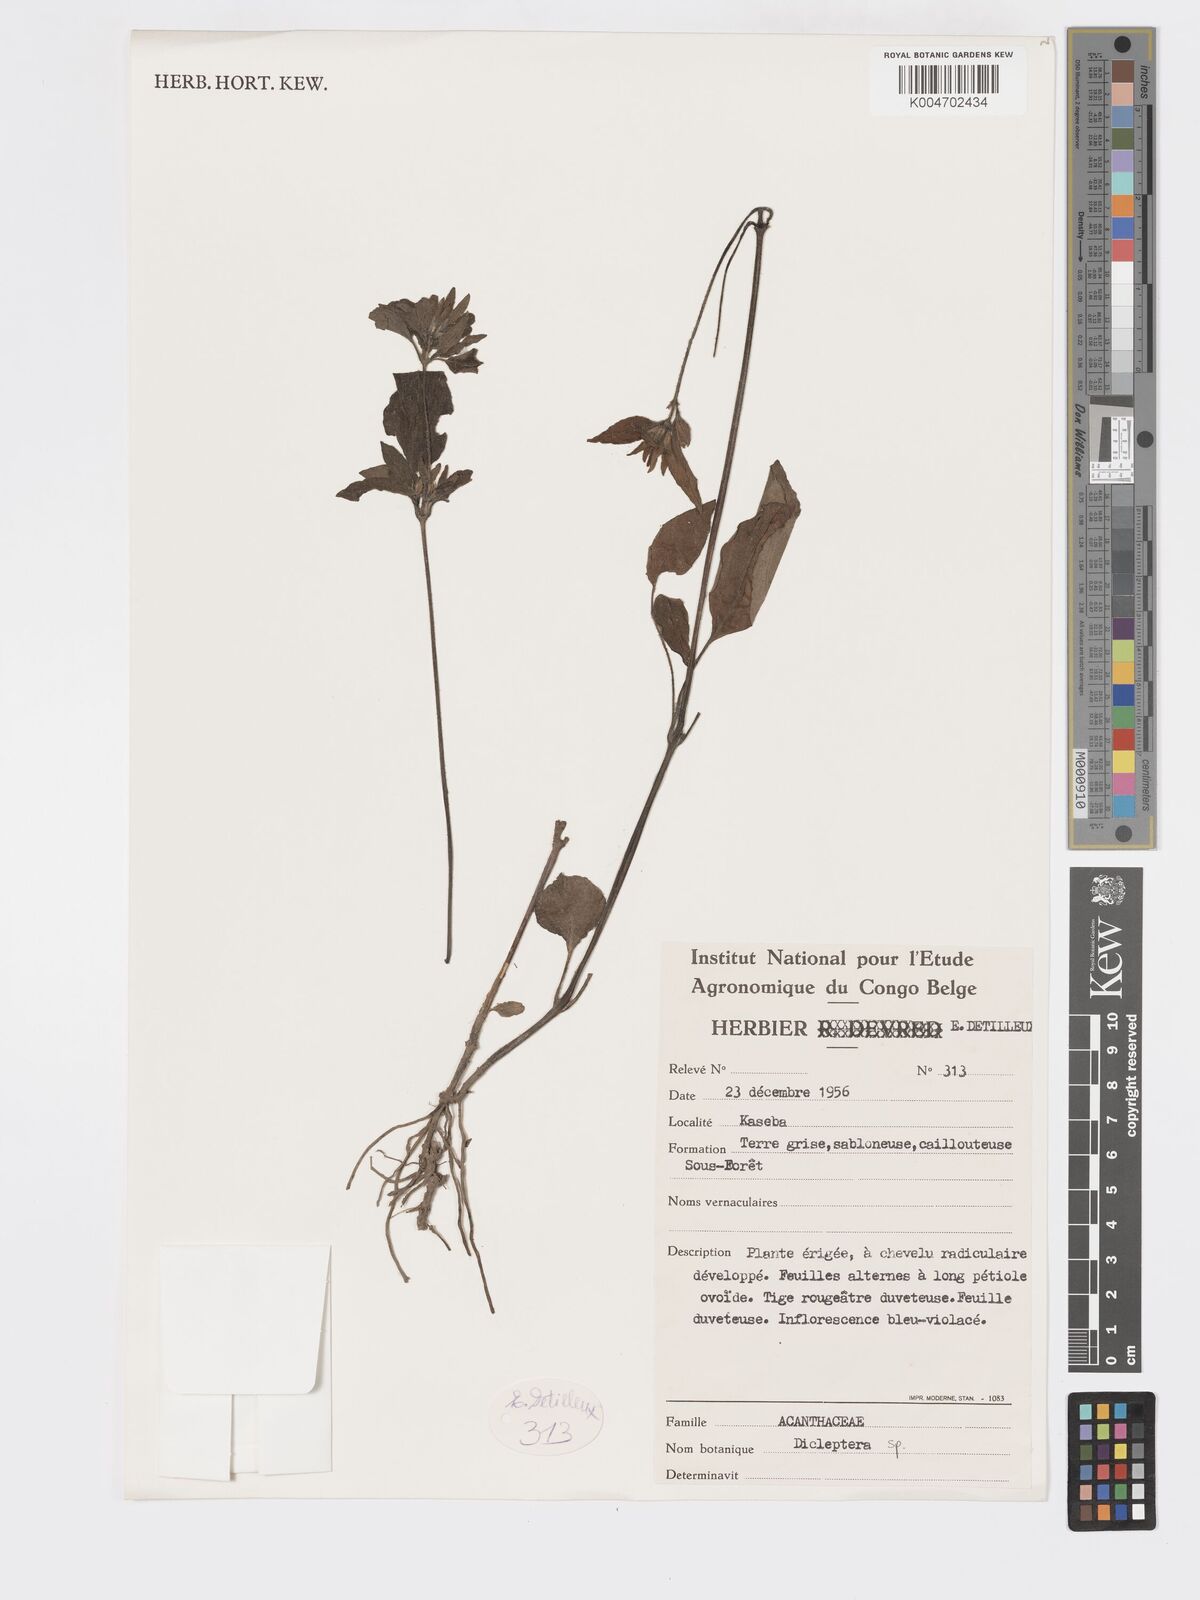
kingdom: Plantae
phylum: Tracheophyta
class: Magnoliopsida
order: Lamiales
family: Acanthaceae
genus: Dicliptera
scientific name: Dicliptera
